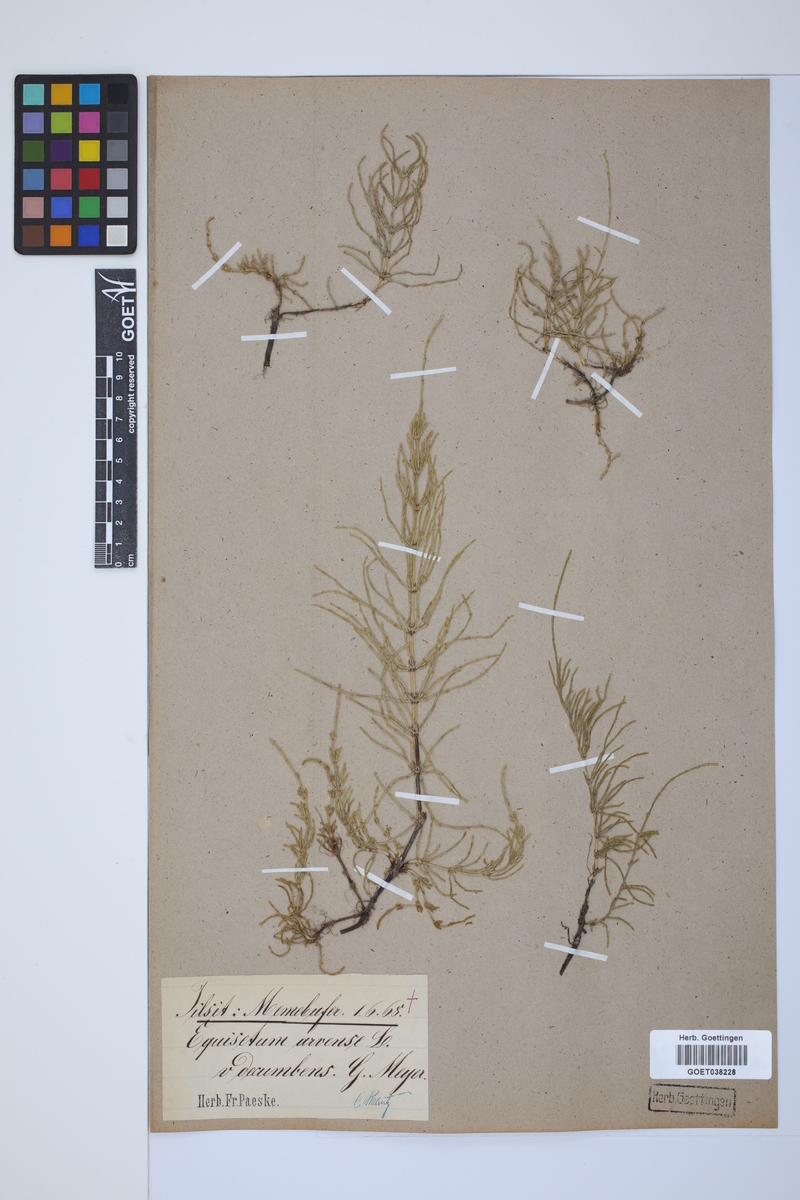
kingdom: Plantae
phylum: Tracheophyta
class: Polypodiopsida
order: Equisetales
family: Equisetaceae
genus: Equisetum
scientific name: Equisetum arvense
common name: Field horsetail
